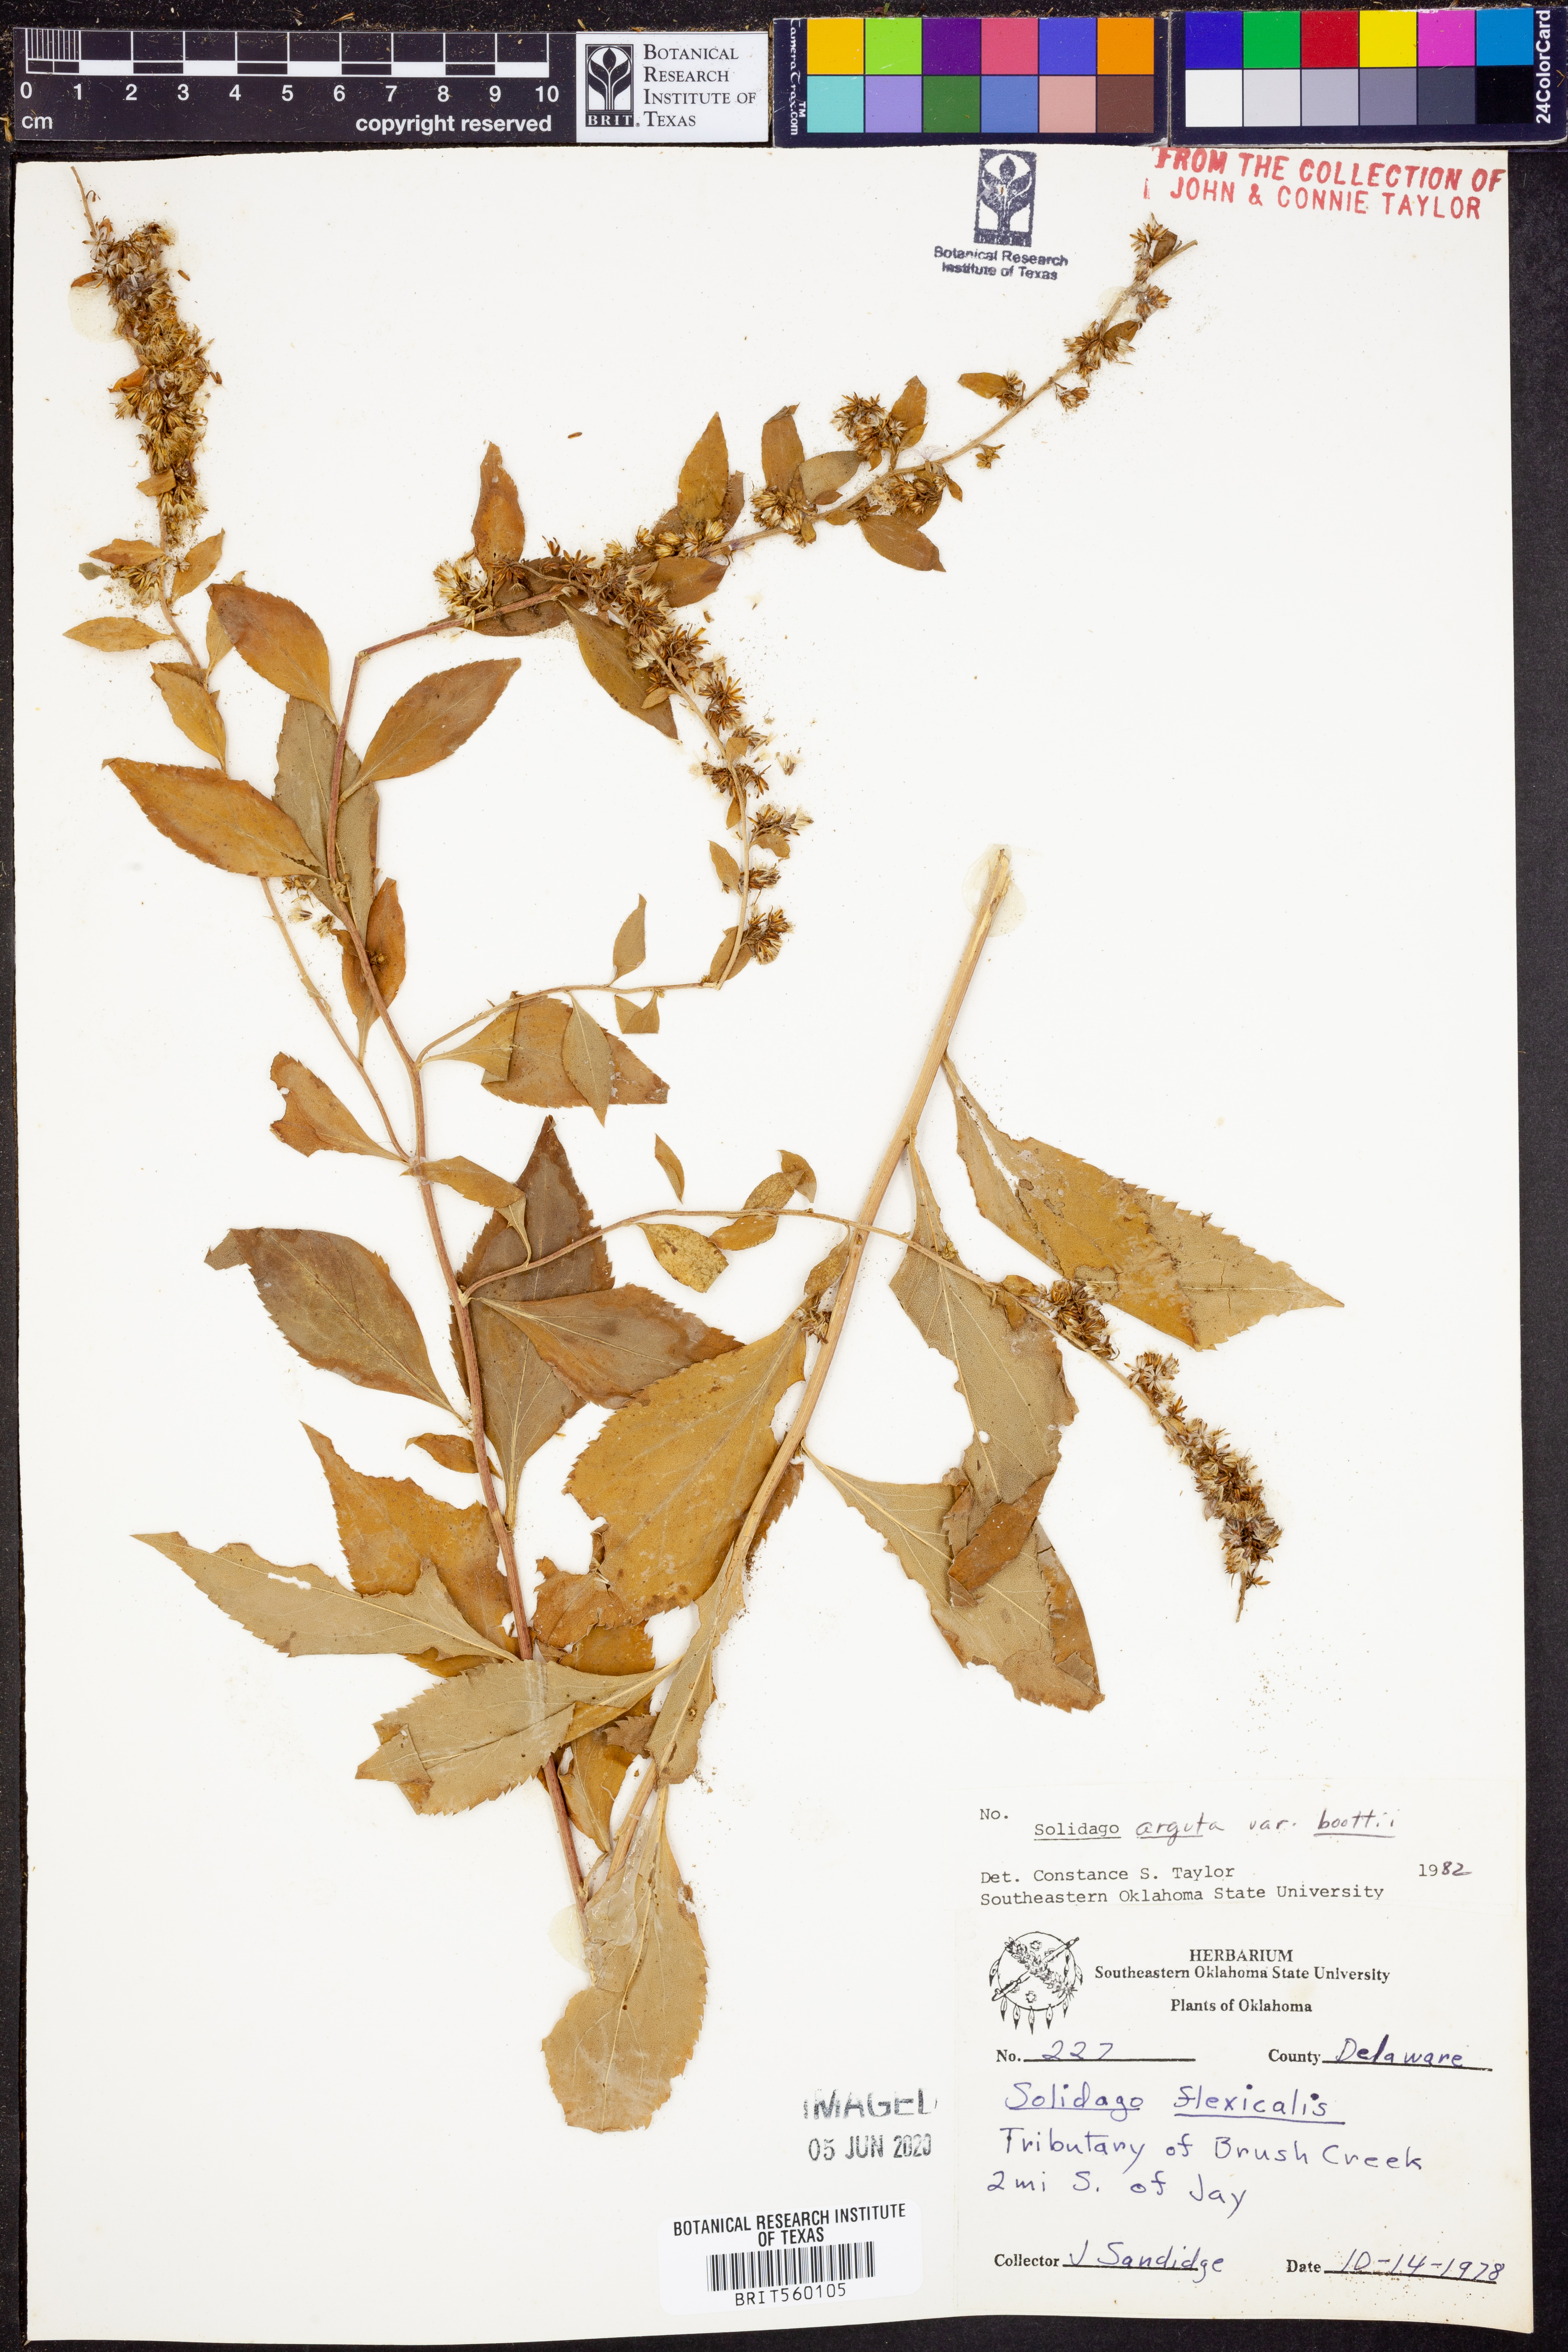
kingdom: Plantae
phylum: Tracheophyta
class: Magnoliopsida
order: Asterales
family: Asteraceae
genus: Solidago
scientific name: Solidago boottii
